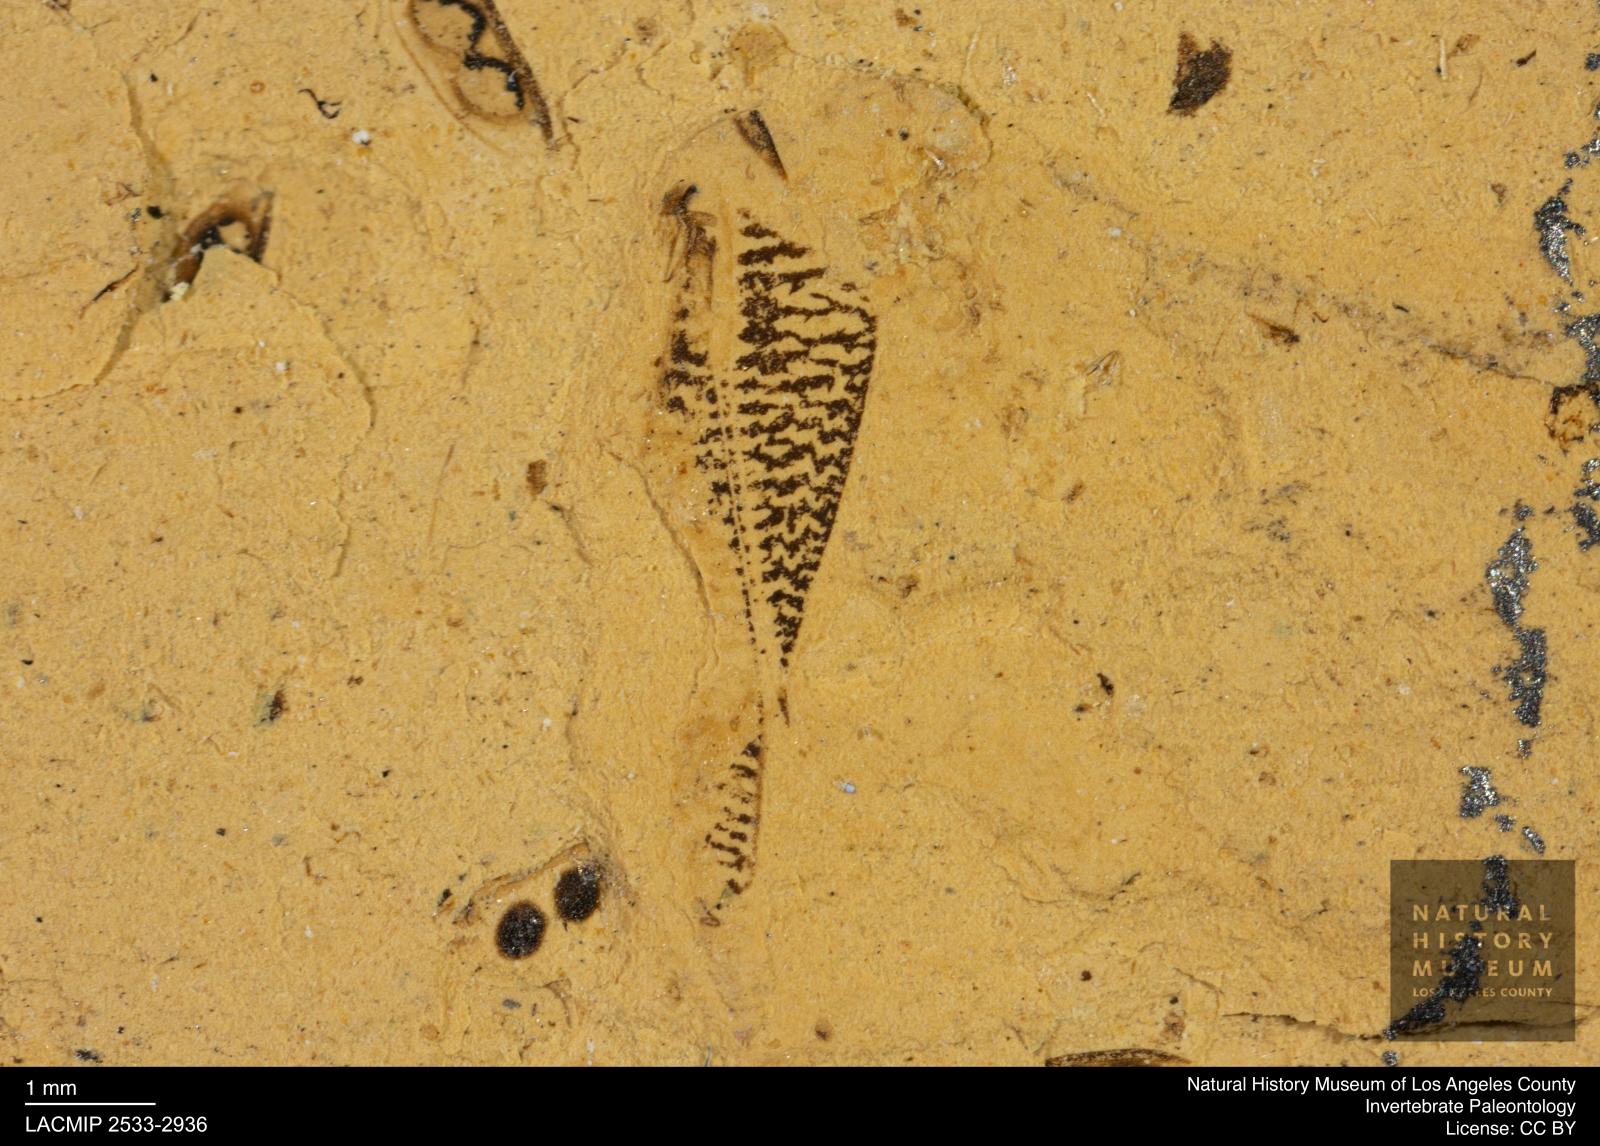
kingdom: Animalia
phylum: Arthropoda
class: Insecta
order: Hemiptera
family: Corixidae
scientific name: Corixidae
